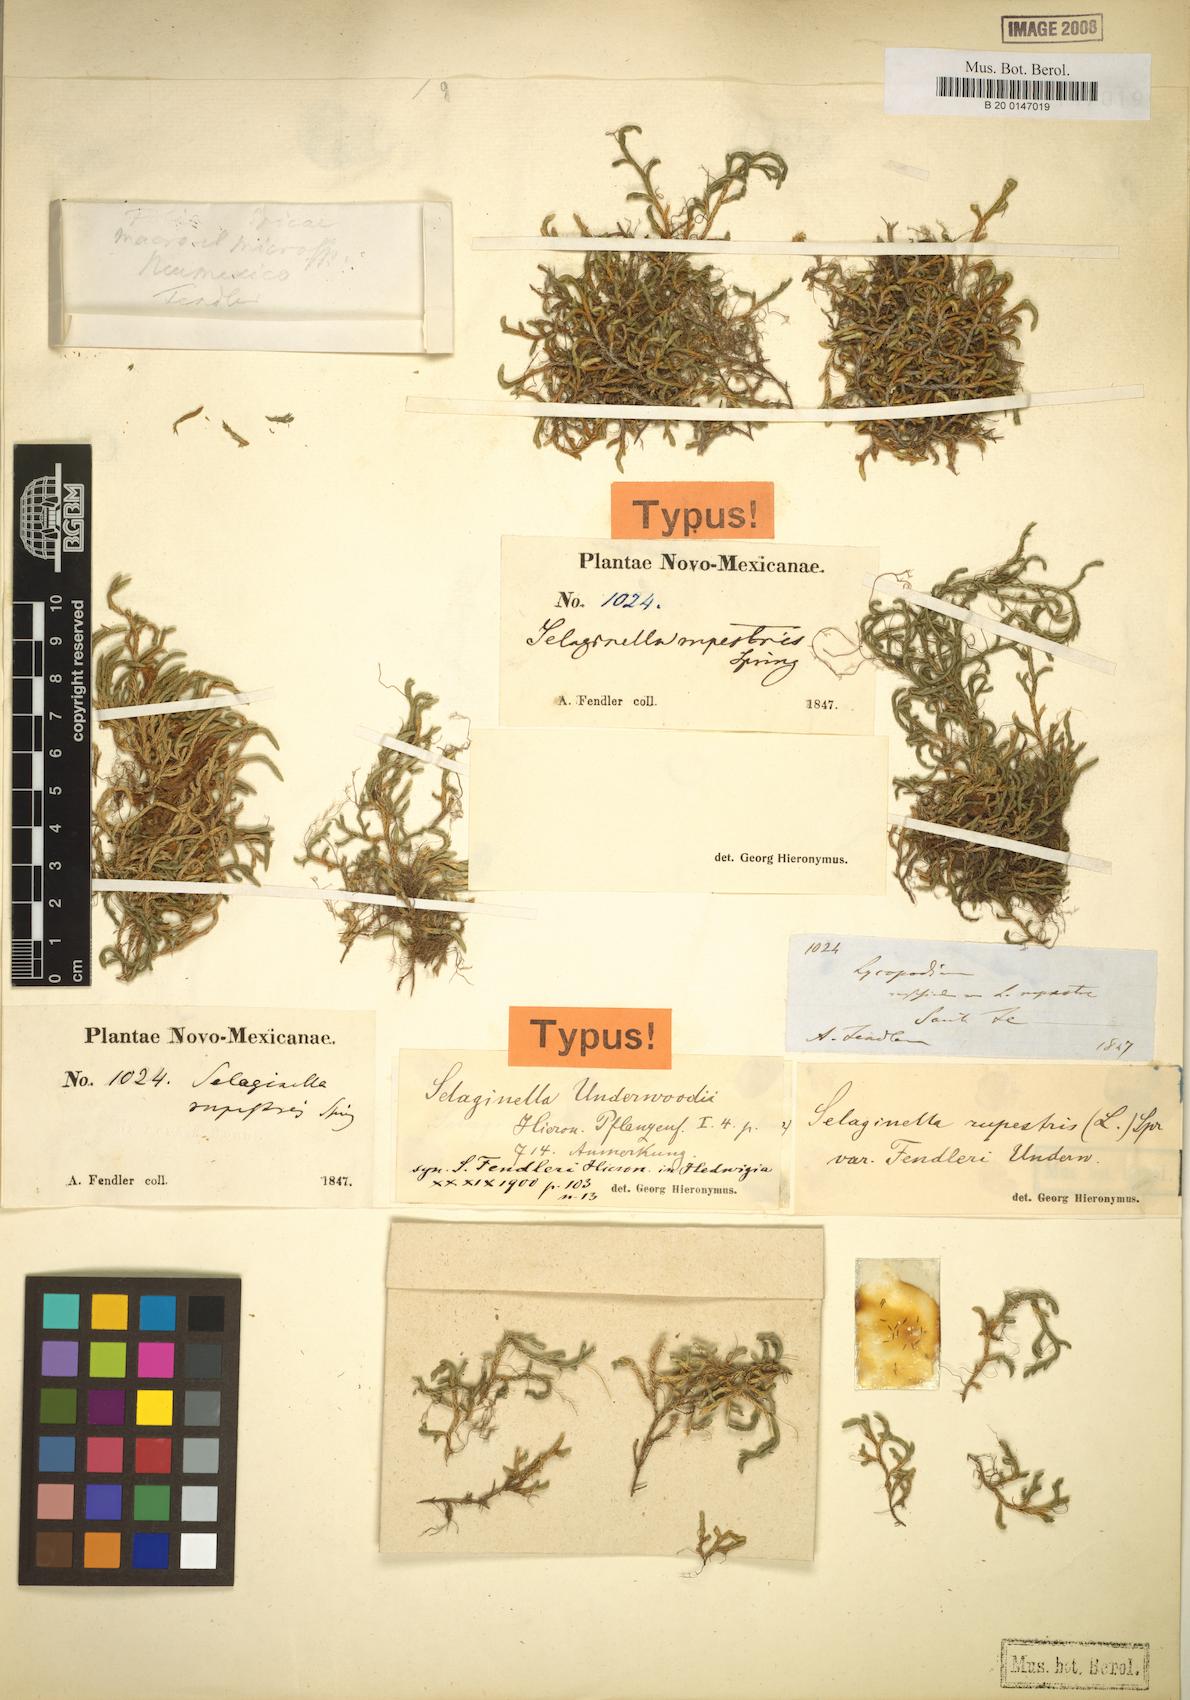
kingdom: Plantae
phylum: Tracheophyta
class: Lycopodiopsida
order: Selaginellales
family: Selaginellaceae
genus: Selaginella
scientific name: Selaginella underwoodii
